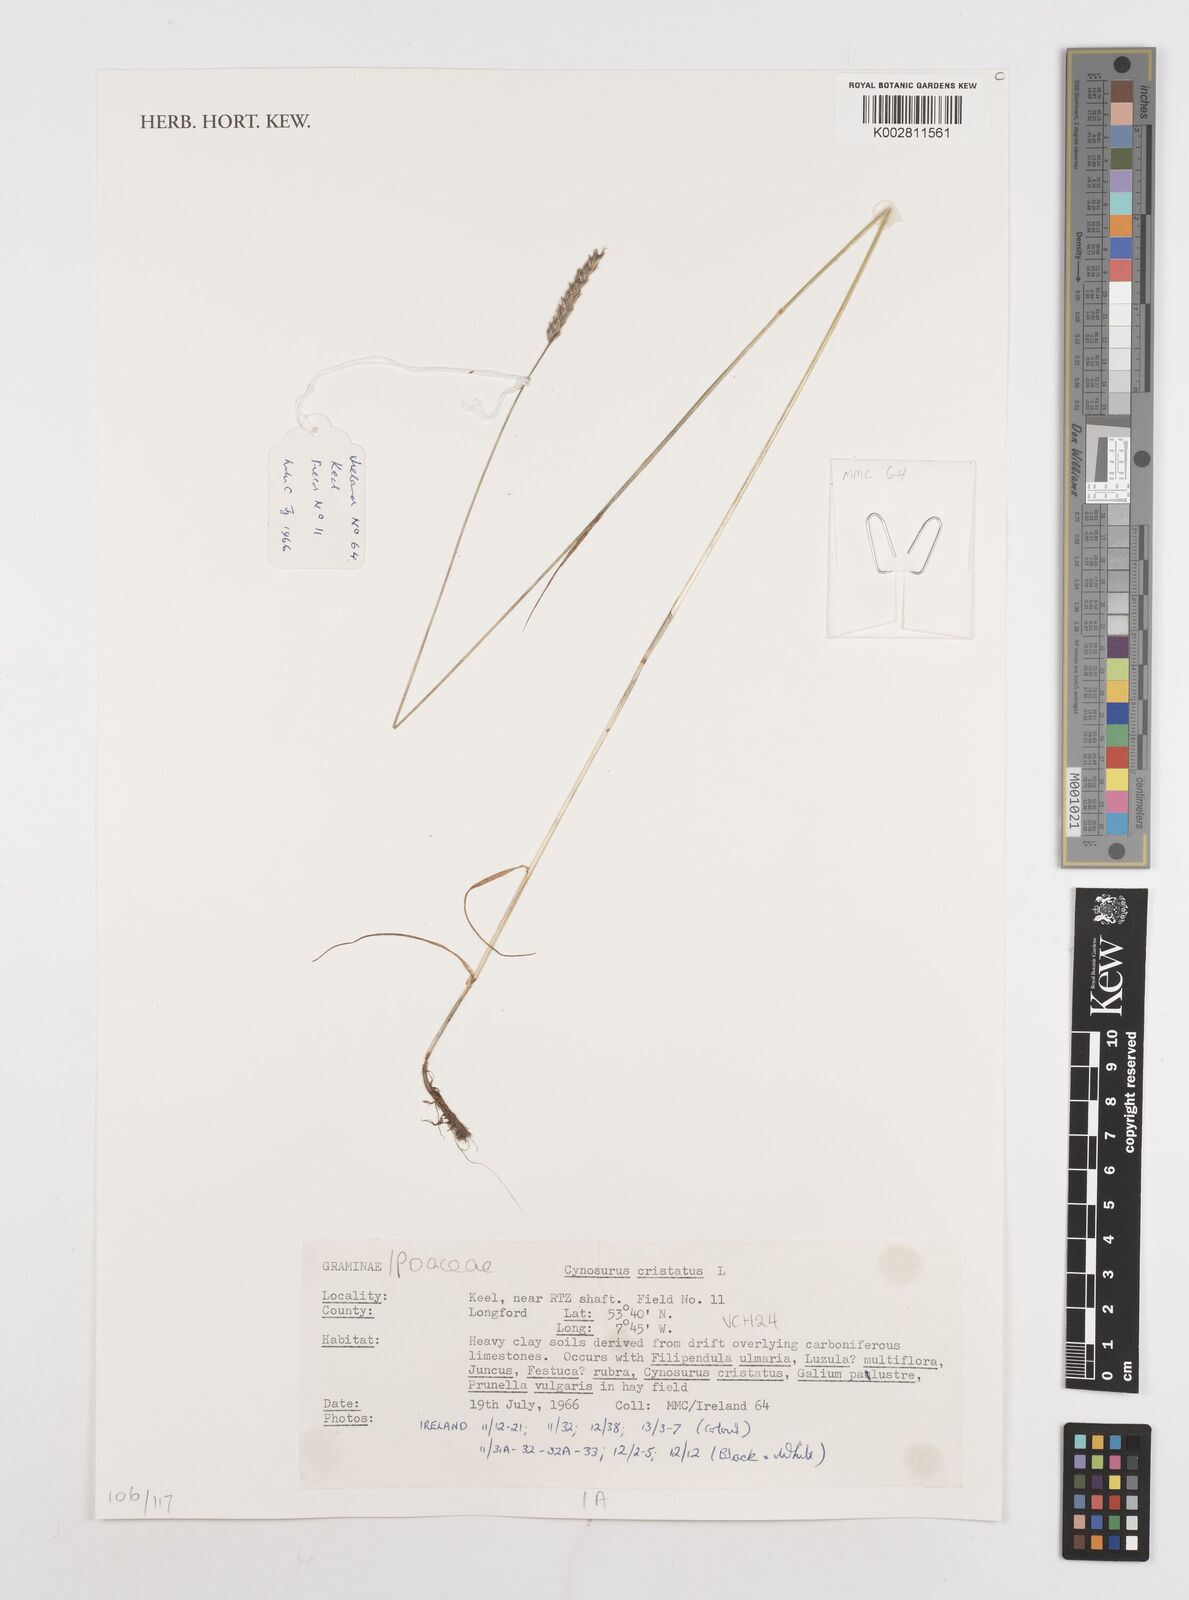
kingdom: Plantae
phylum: Tracheophyta
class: Liliopsida
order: Poales
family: Poaceae
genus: Cynosurus
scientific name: Cynosurus cristatus
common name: Crested dog's-tail
